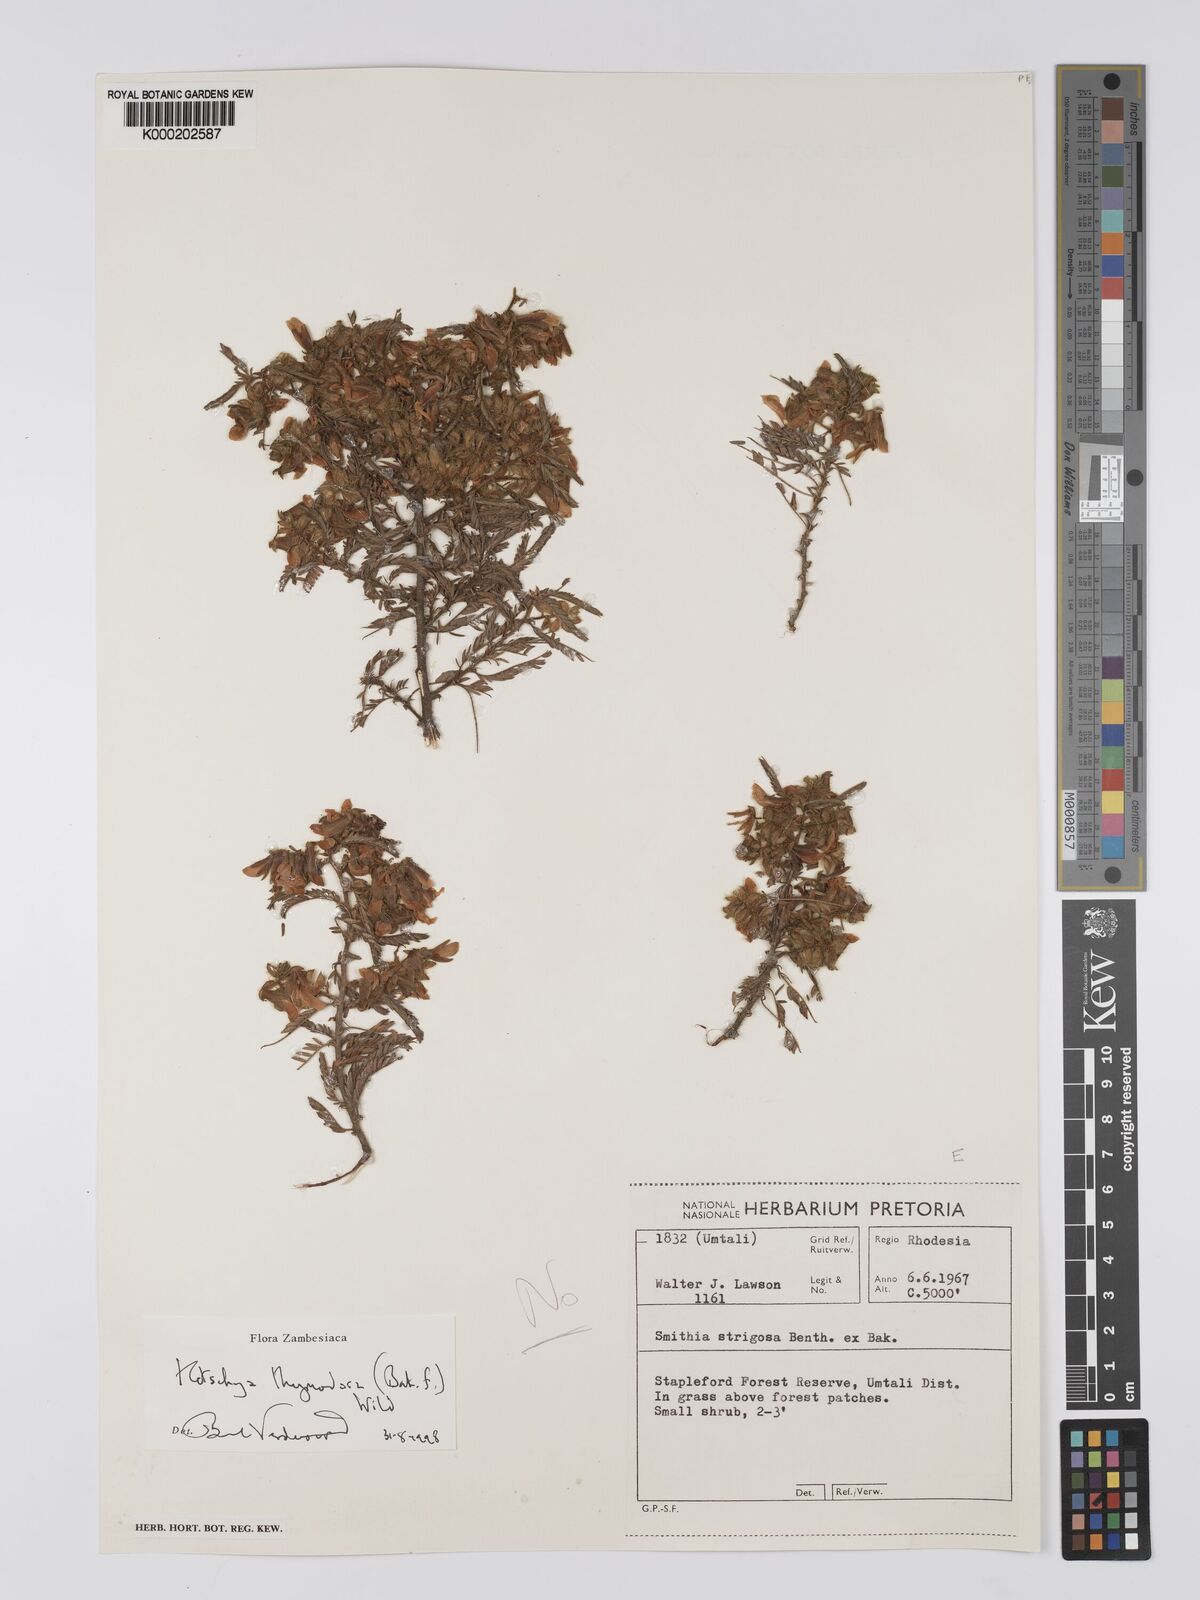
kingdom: Plantae
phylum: Tracheophyta
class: Magnoliopsida
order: Fabales
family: Fabaceae
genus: Kotschya
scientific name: Kotschya thymodora
